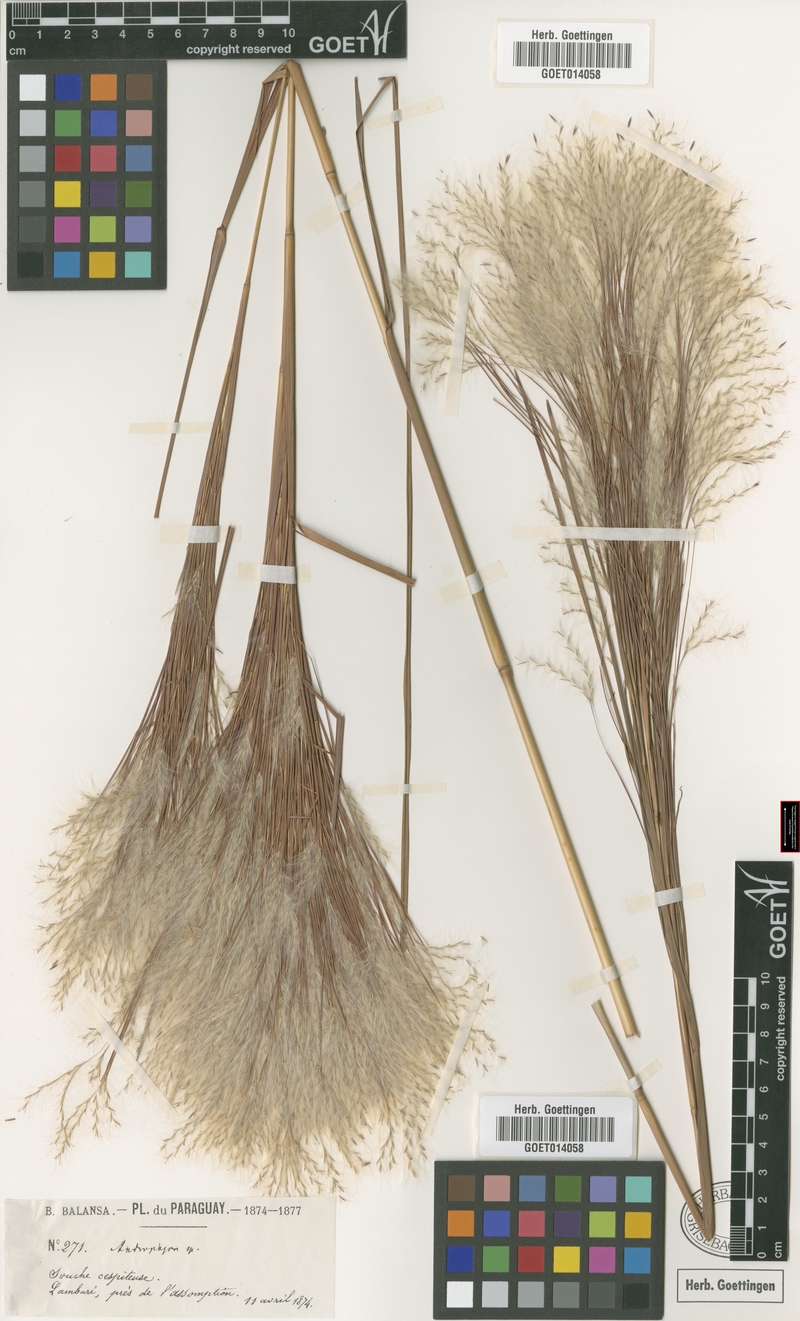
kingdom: Plantae
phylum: Tracheophyta
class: Liliopsida
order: Poales
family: Poaceae
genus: Andropogon
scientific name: Andropogon bicornis
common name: West indian foxtail grass
